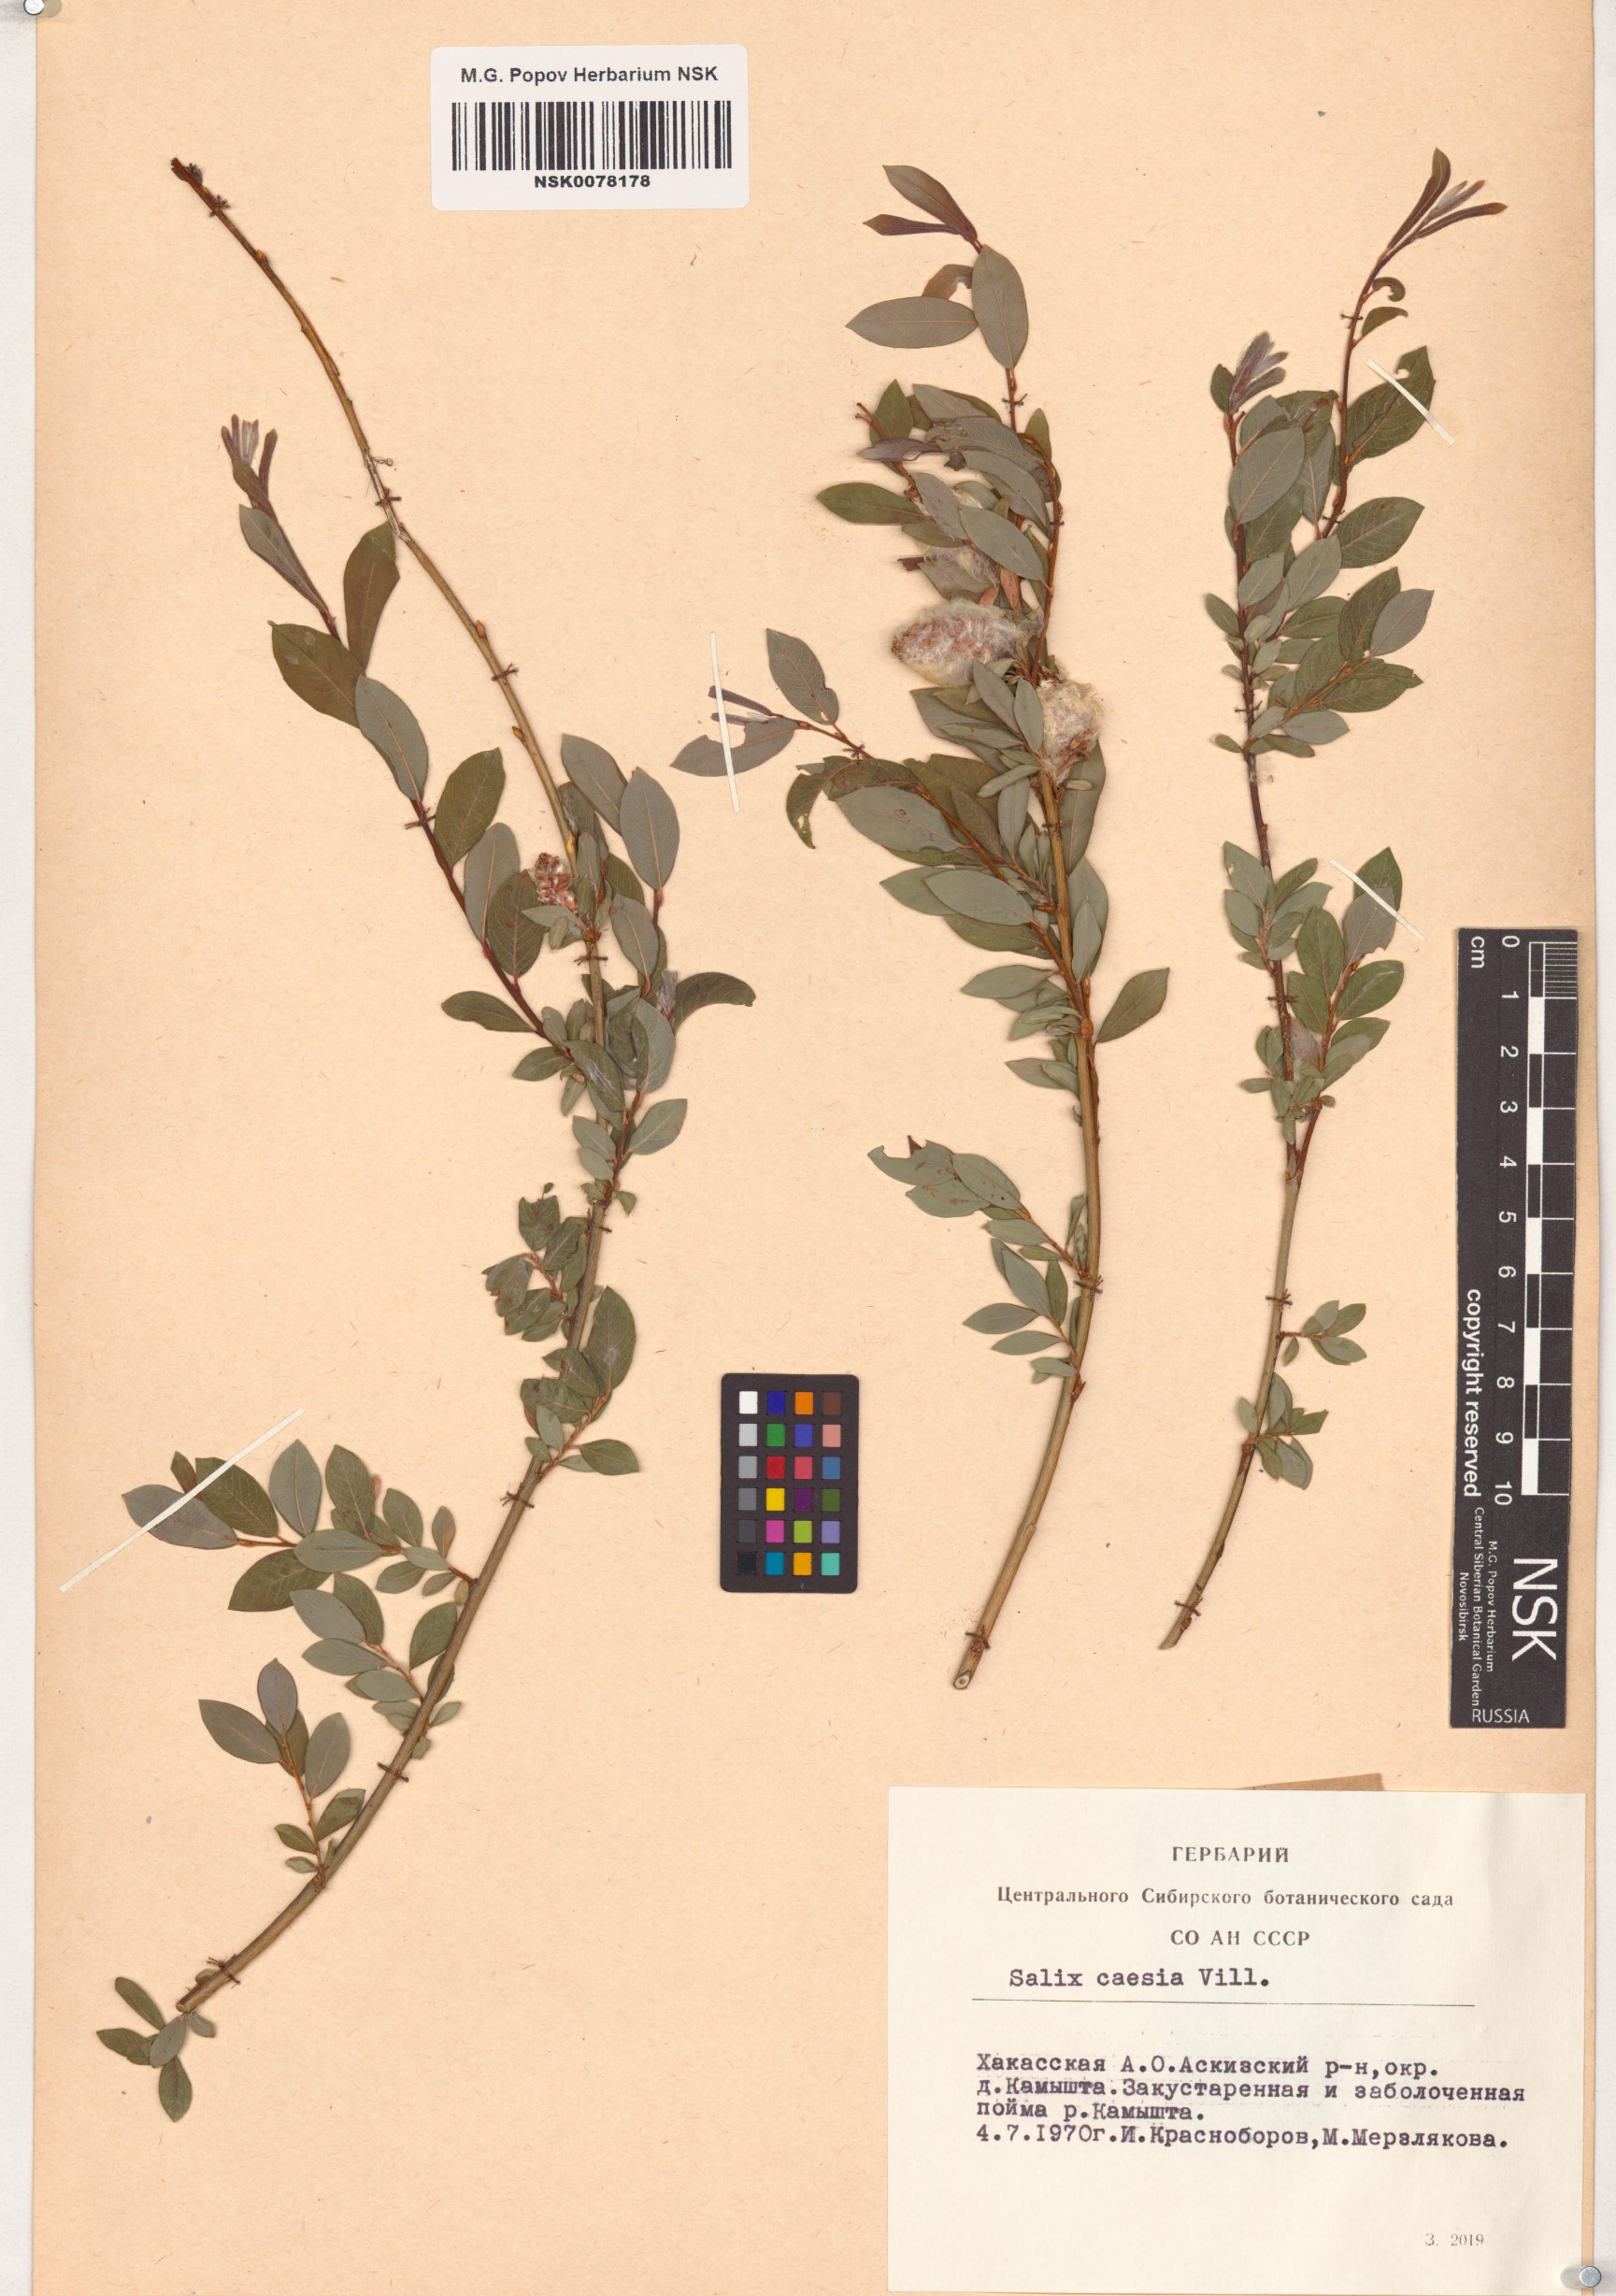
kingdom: Plantae
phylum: Tracheophyta
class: Magnoliopsida
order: Malpighiales
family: Salicaceae
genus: Salix
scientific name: Salix caesia
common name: Blue willow
